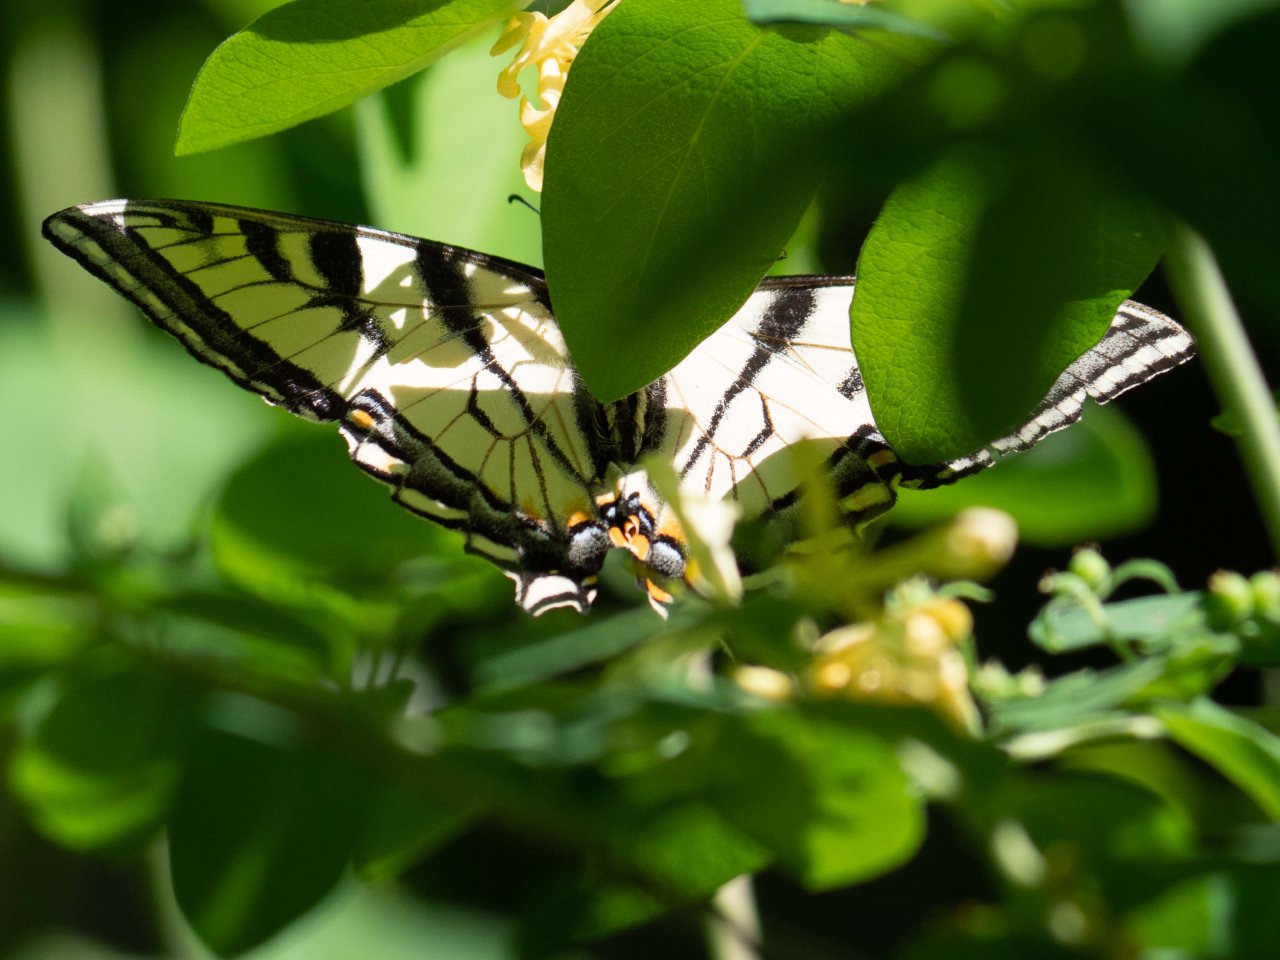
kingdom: Animalia
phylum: Arthropoda
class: Insecta
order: Lepidoptera
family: Papilionidae
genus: Pterourus
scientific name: Pterourus canadensis
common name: Canadian Tiger Swallowtail
